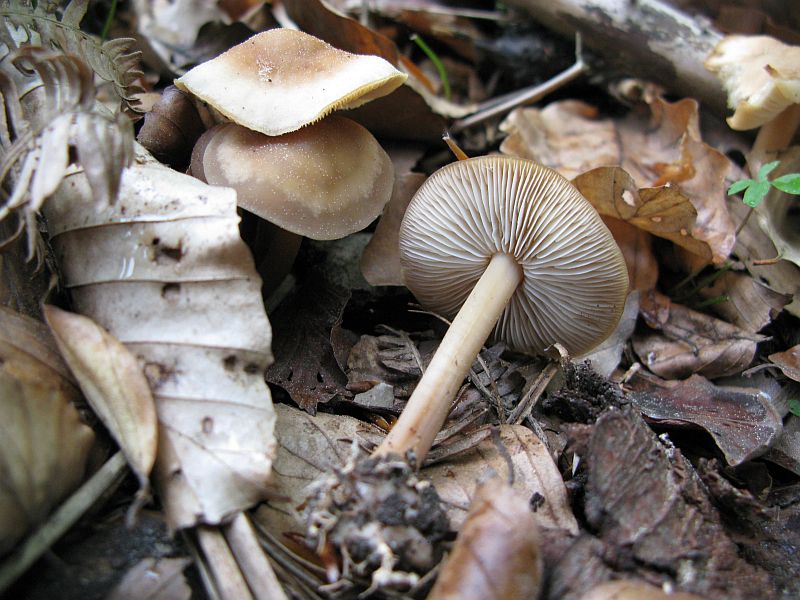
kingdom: Fungi
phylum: Basidiomycota
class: Agaricomycetes
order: Agaricales
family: Omphalotaceae
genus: Gymnopus
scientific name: Gymnopus aquosus
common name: bleg fladhat
